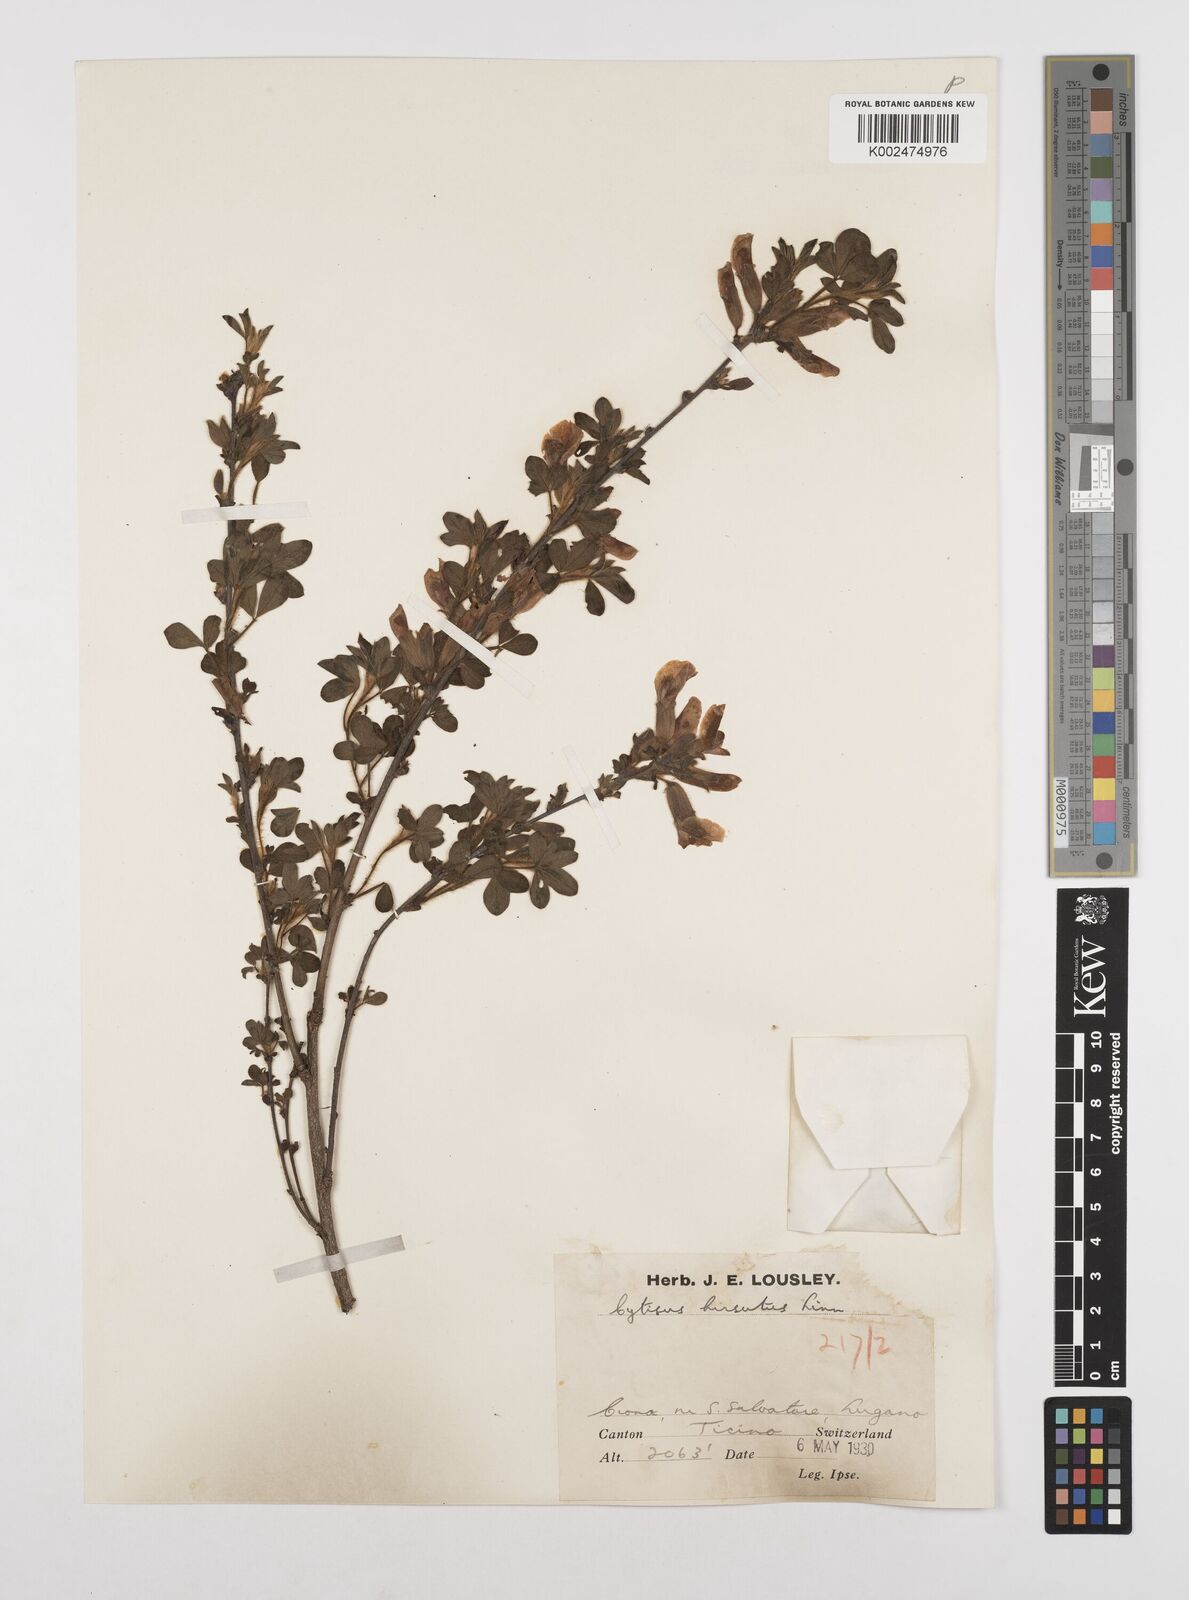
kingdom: Plantae
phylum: Tracheophyta
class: Magnoliopsida
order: Fabales
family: Fabaceae
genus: Chamaecytisus
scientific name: Chamaecytisus hirsutus
